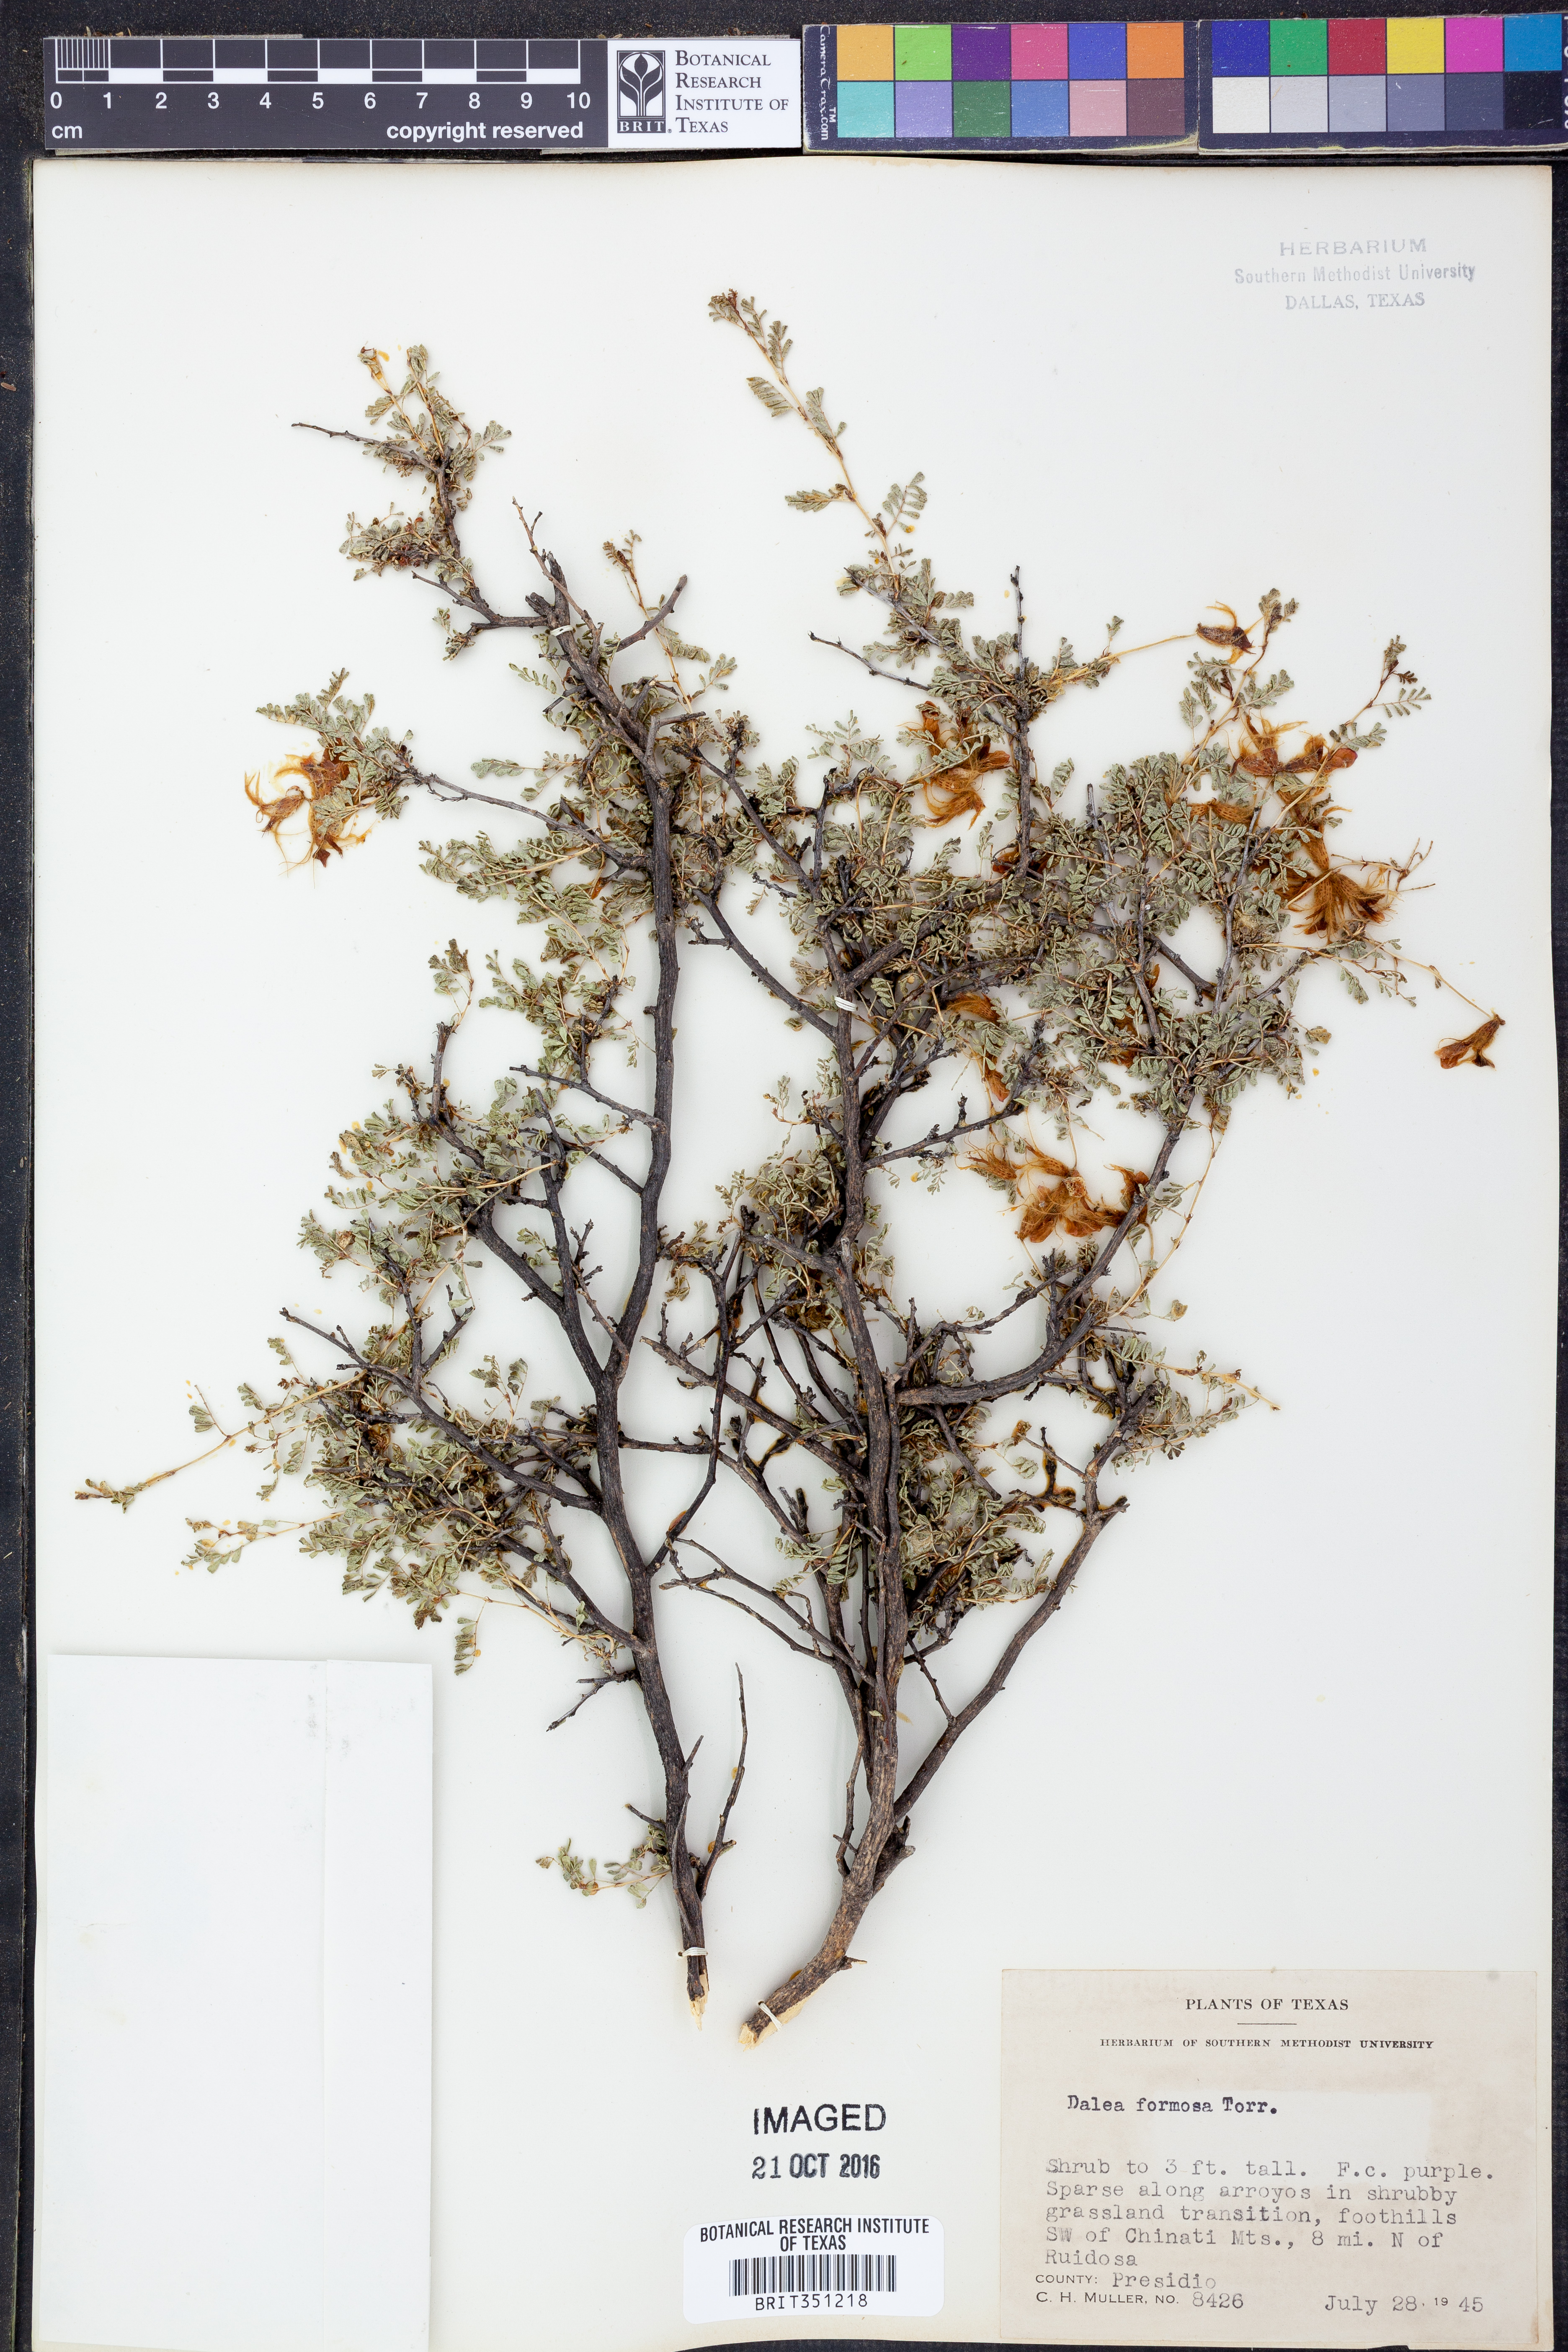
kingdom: Plantae
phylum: Tracheophyta
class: Magnoliopsida
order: Fabales
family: Fabaceae
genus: Dalea
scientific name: Dalea formosa
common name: Feather-plume dalea
